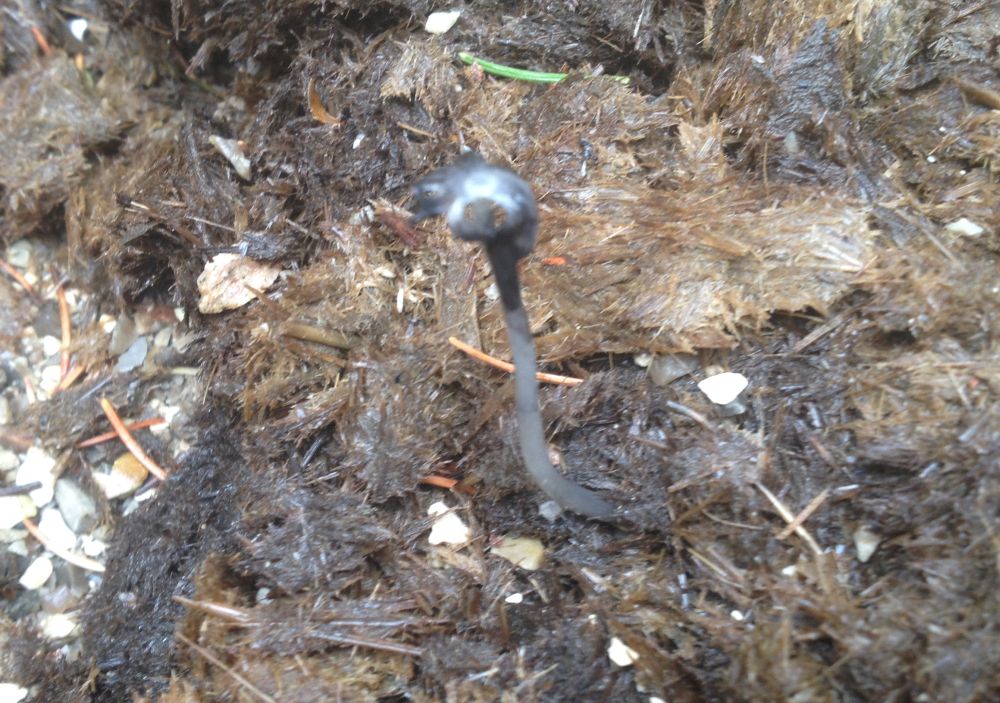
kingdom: Fungi
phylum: Basidiomycota
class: Agaricomycetes
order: Agaricales
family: Psathyrellaceae
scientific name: Psathyrellaceae
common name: mørkhatfamilien
